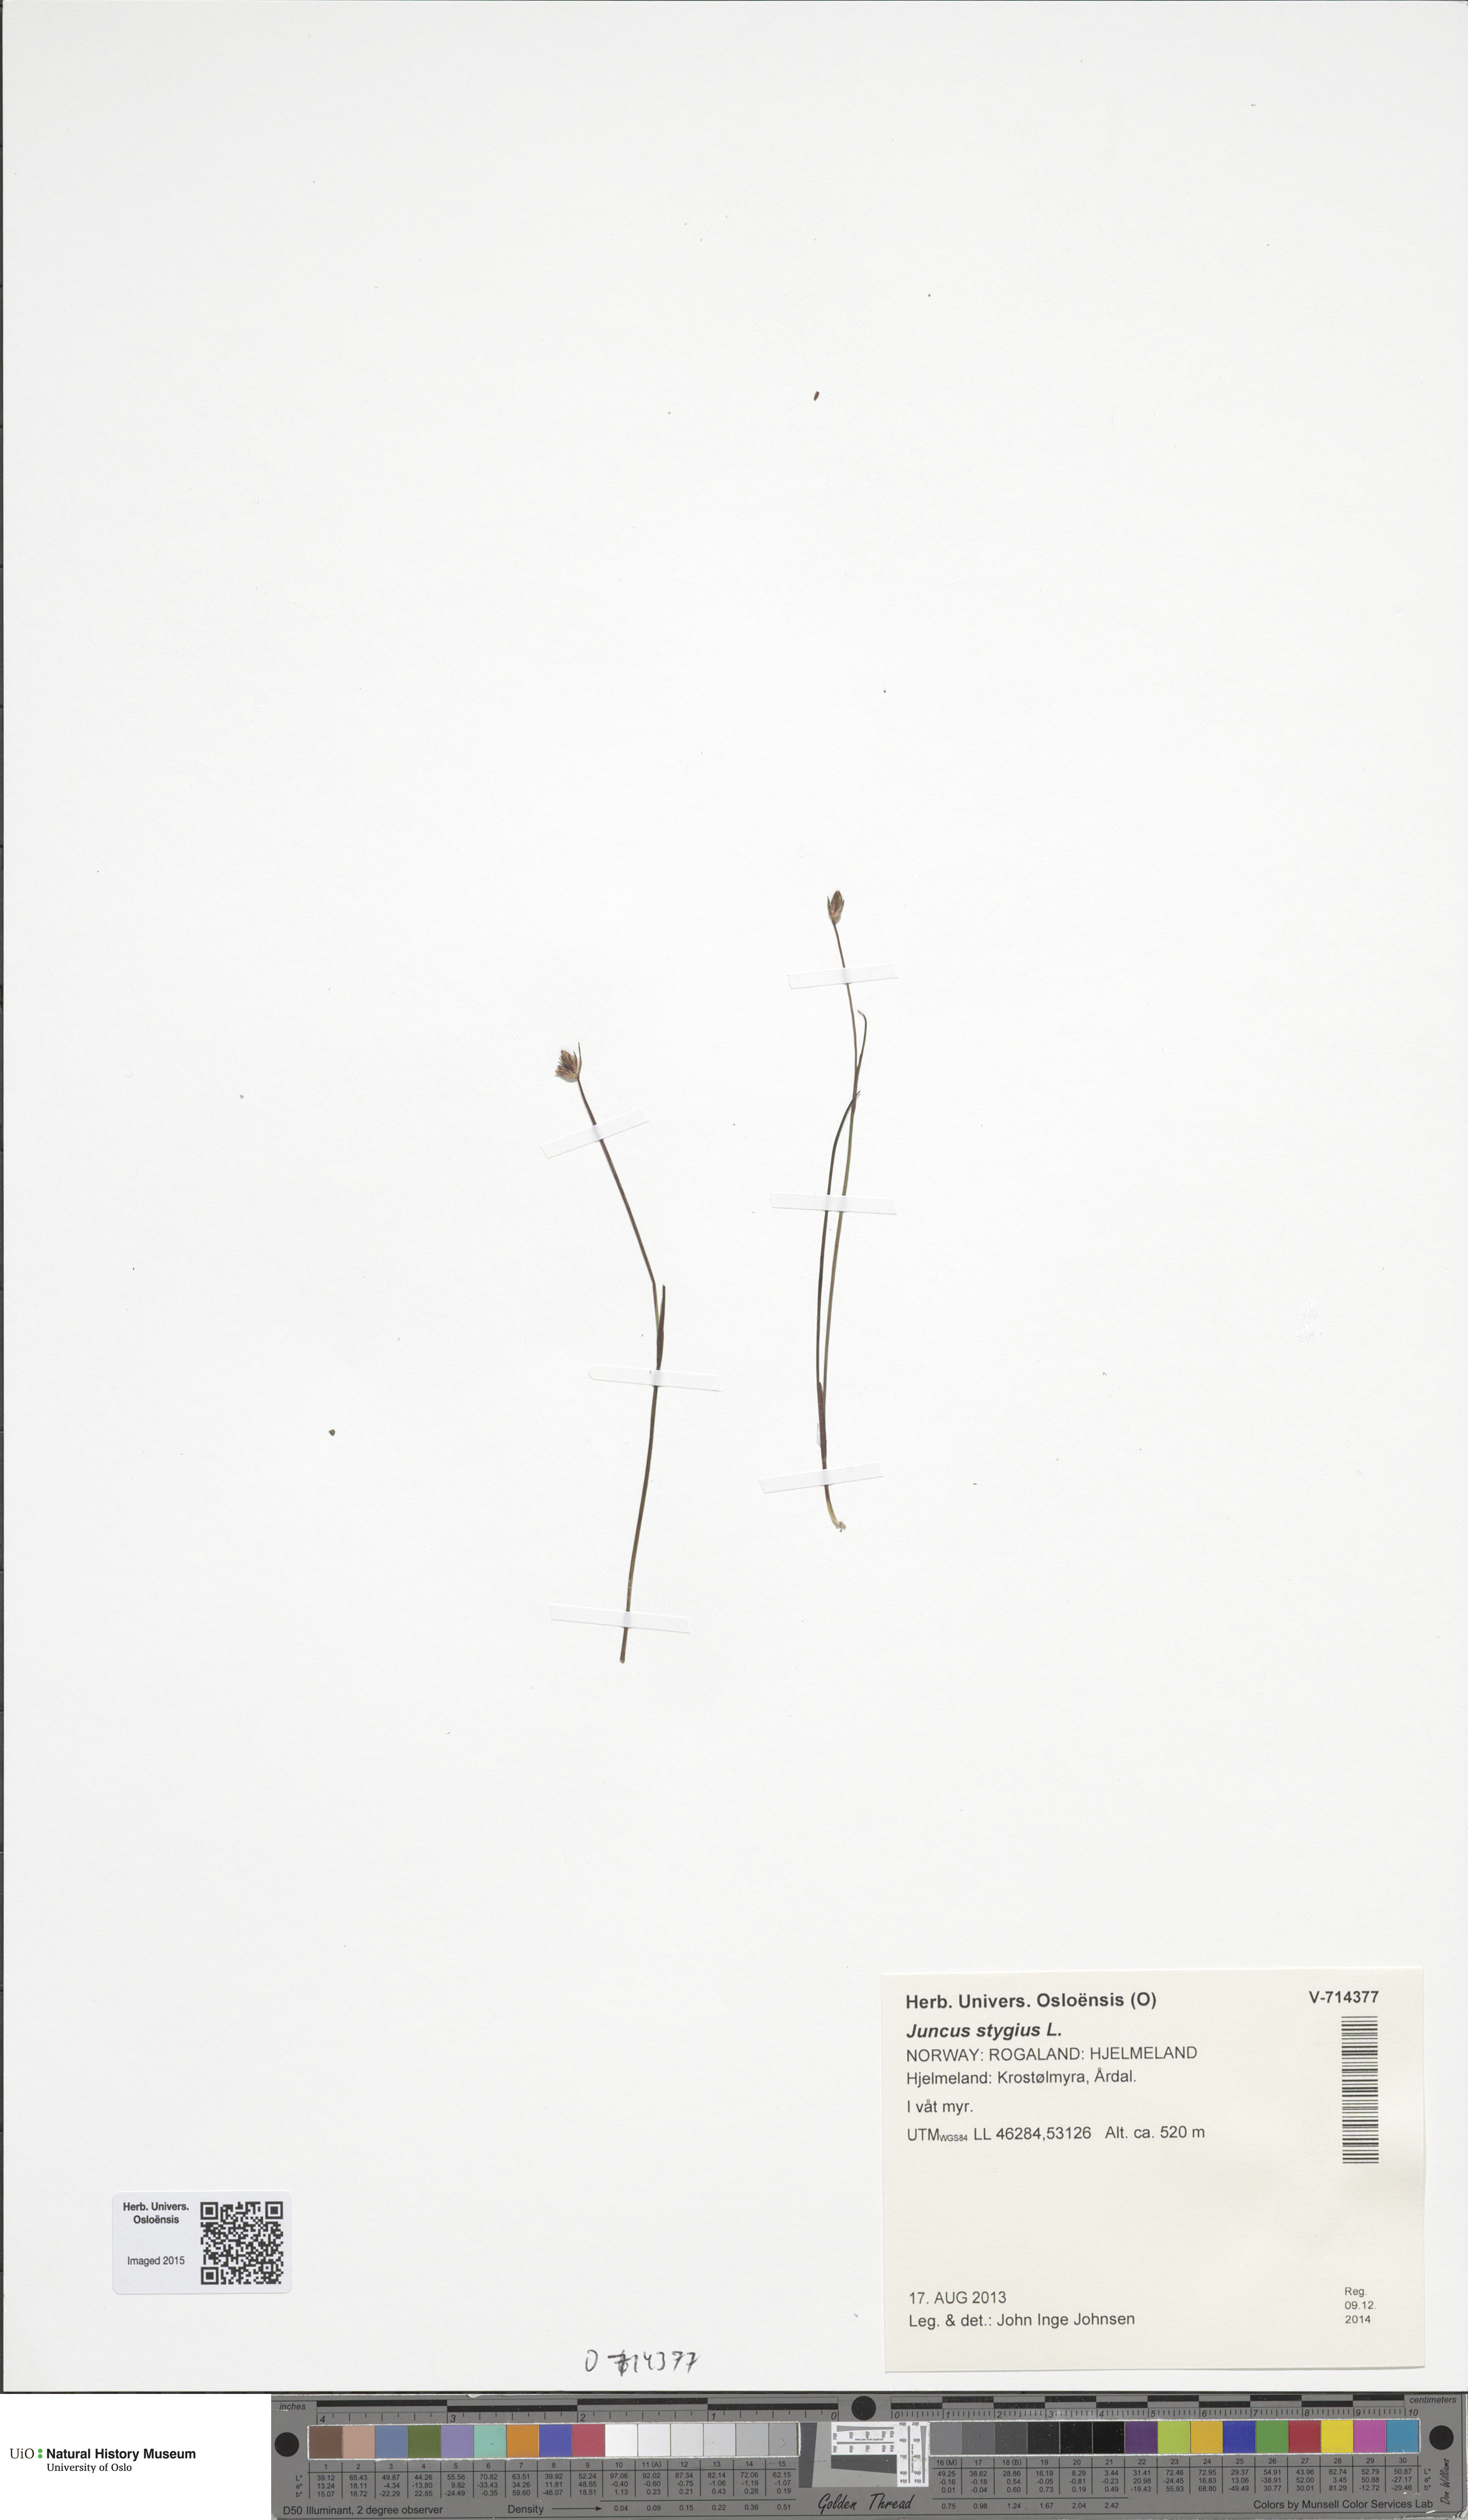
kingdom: Plantae
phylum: Tracheophyta
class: Liliopsida
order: Poales
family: Juncaceae
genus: Juncus
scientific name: Juncus stygius
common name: Bog rush
